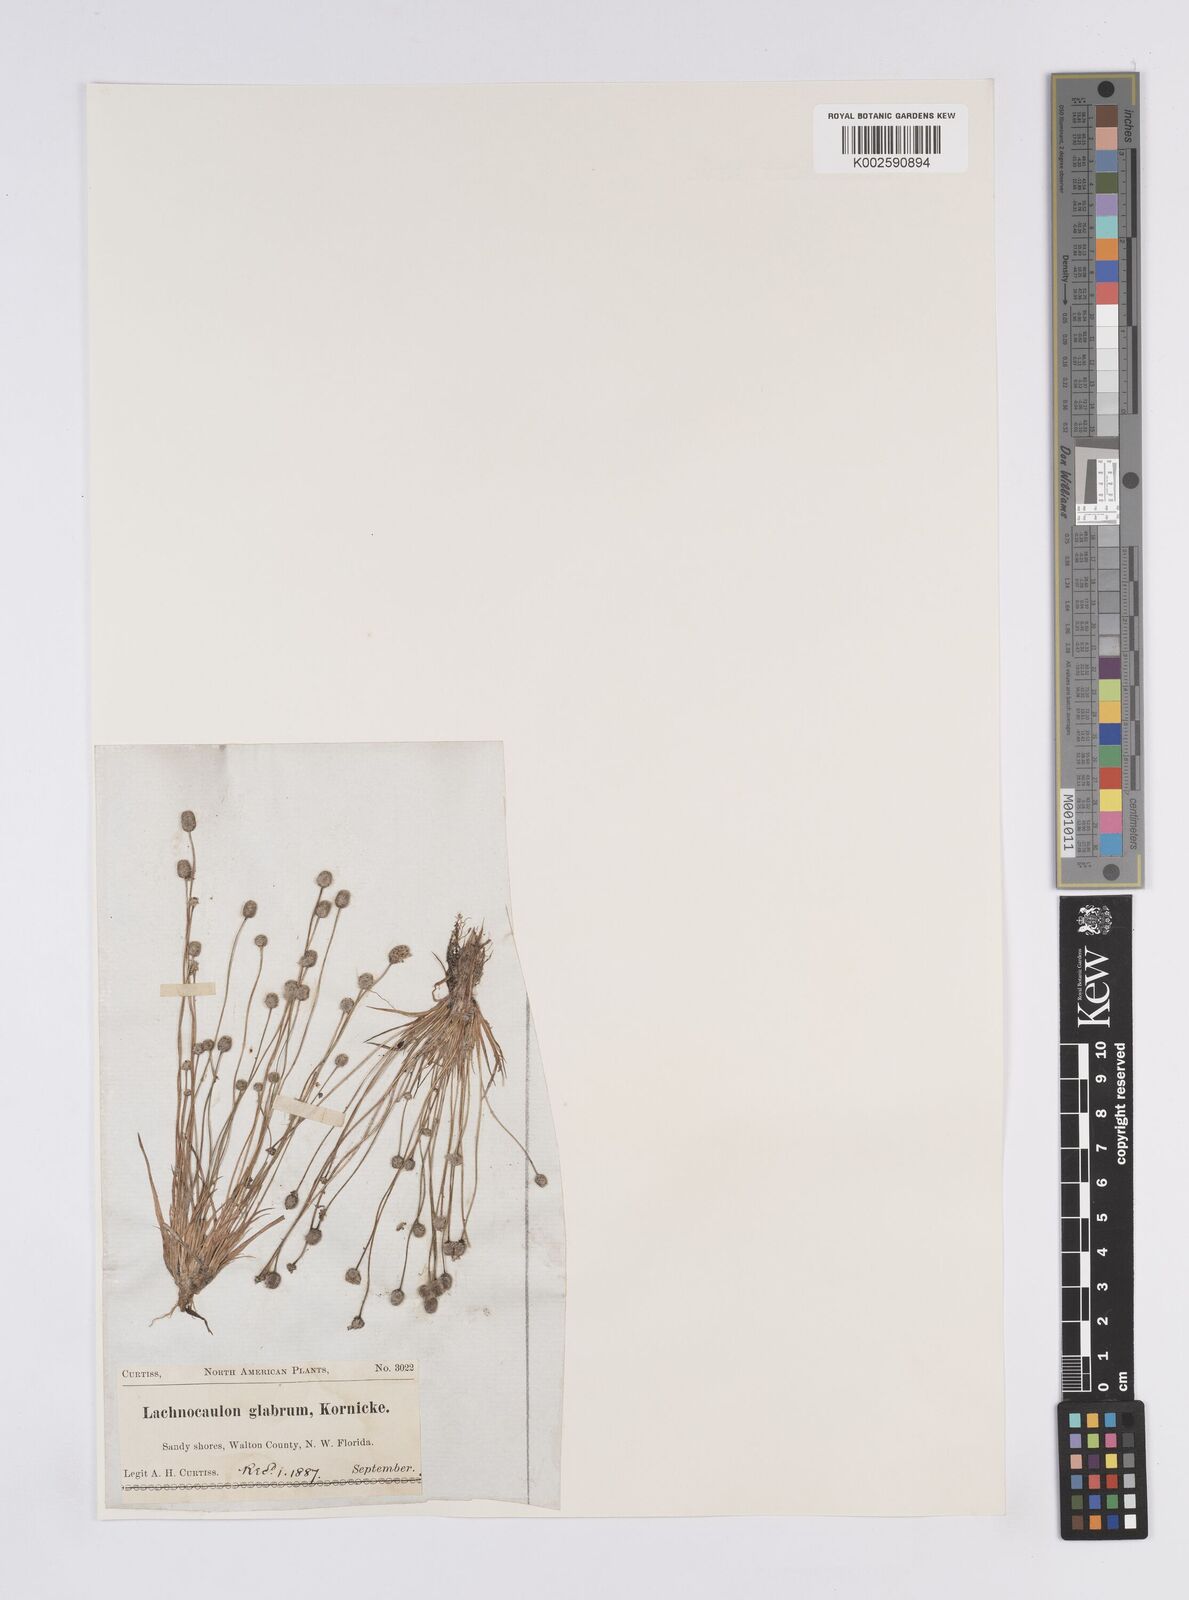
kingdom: Plantae
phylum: Tracheophyta
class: Liliopsida
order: Poales
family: Eriocaulaceae
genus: Paepalanthus
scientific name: Paepalanthus anceps
